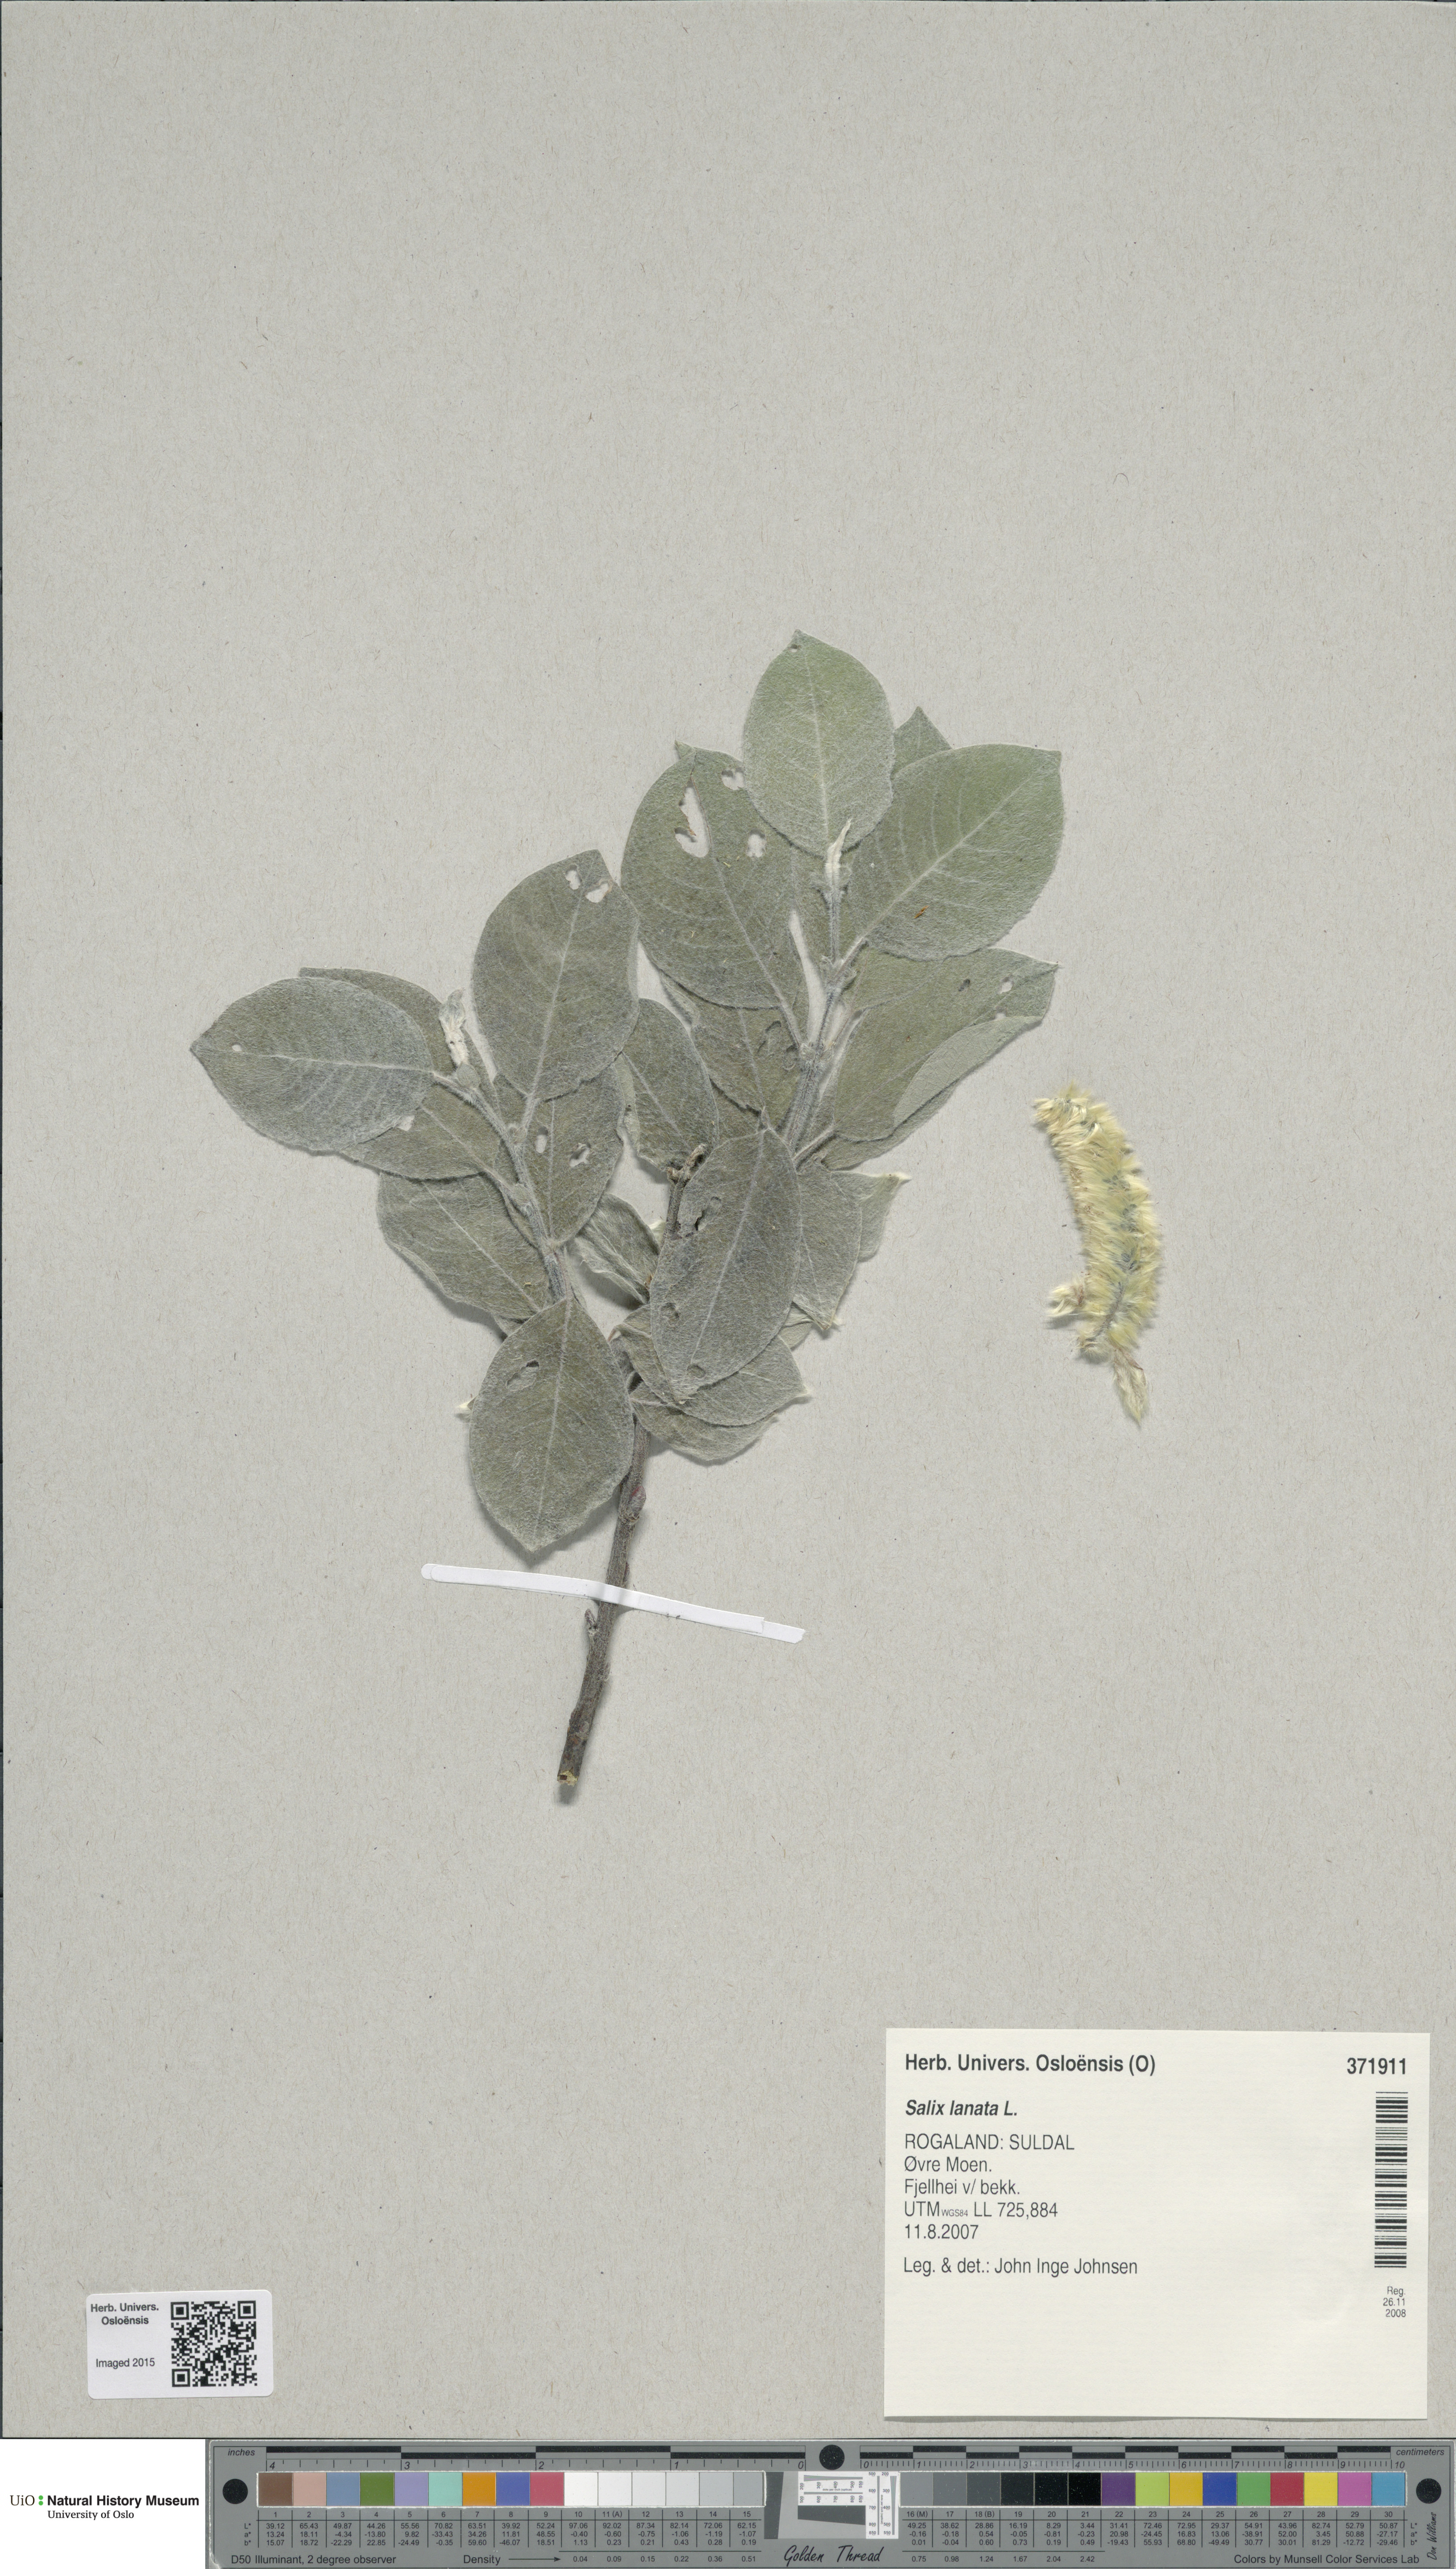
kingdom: Plantae
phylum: Tracheophyta
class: Magnoliopsida
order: Malpighiales
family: Salicaceae
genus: Salix
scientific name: Salix lanata
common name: Woolly willow
